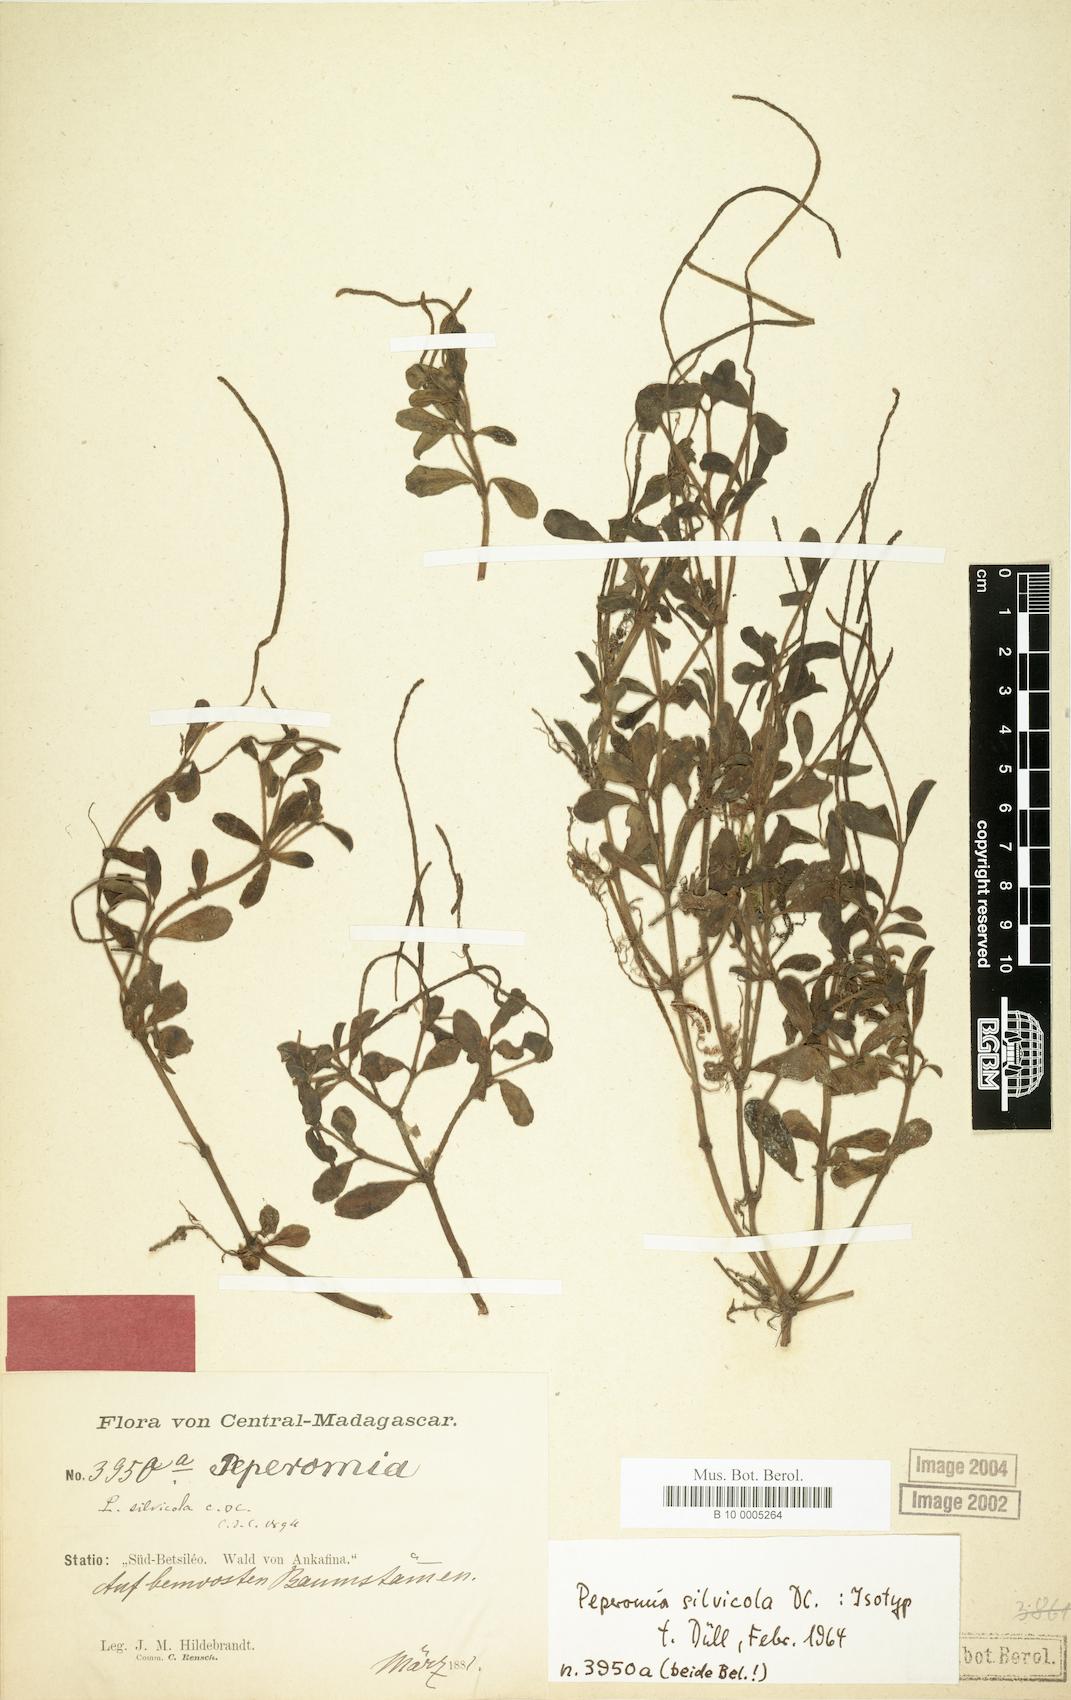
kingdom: Plantae
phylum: Tracheophyta
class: Magnoliopsida
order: Piperales
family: Piperaceae
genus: Peperomia
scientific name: Peperomia silvicola
